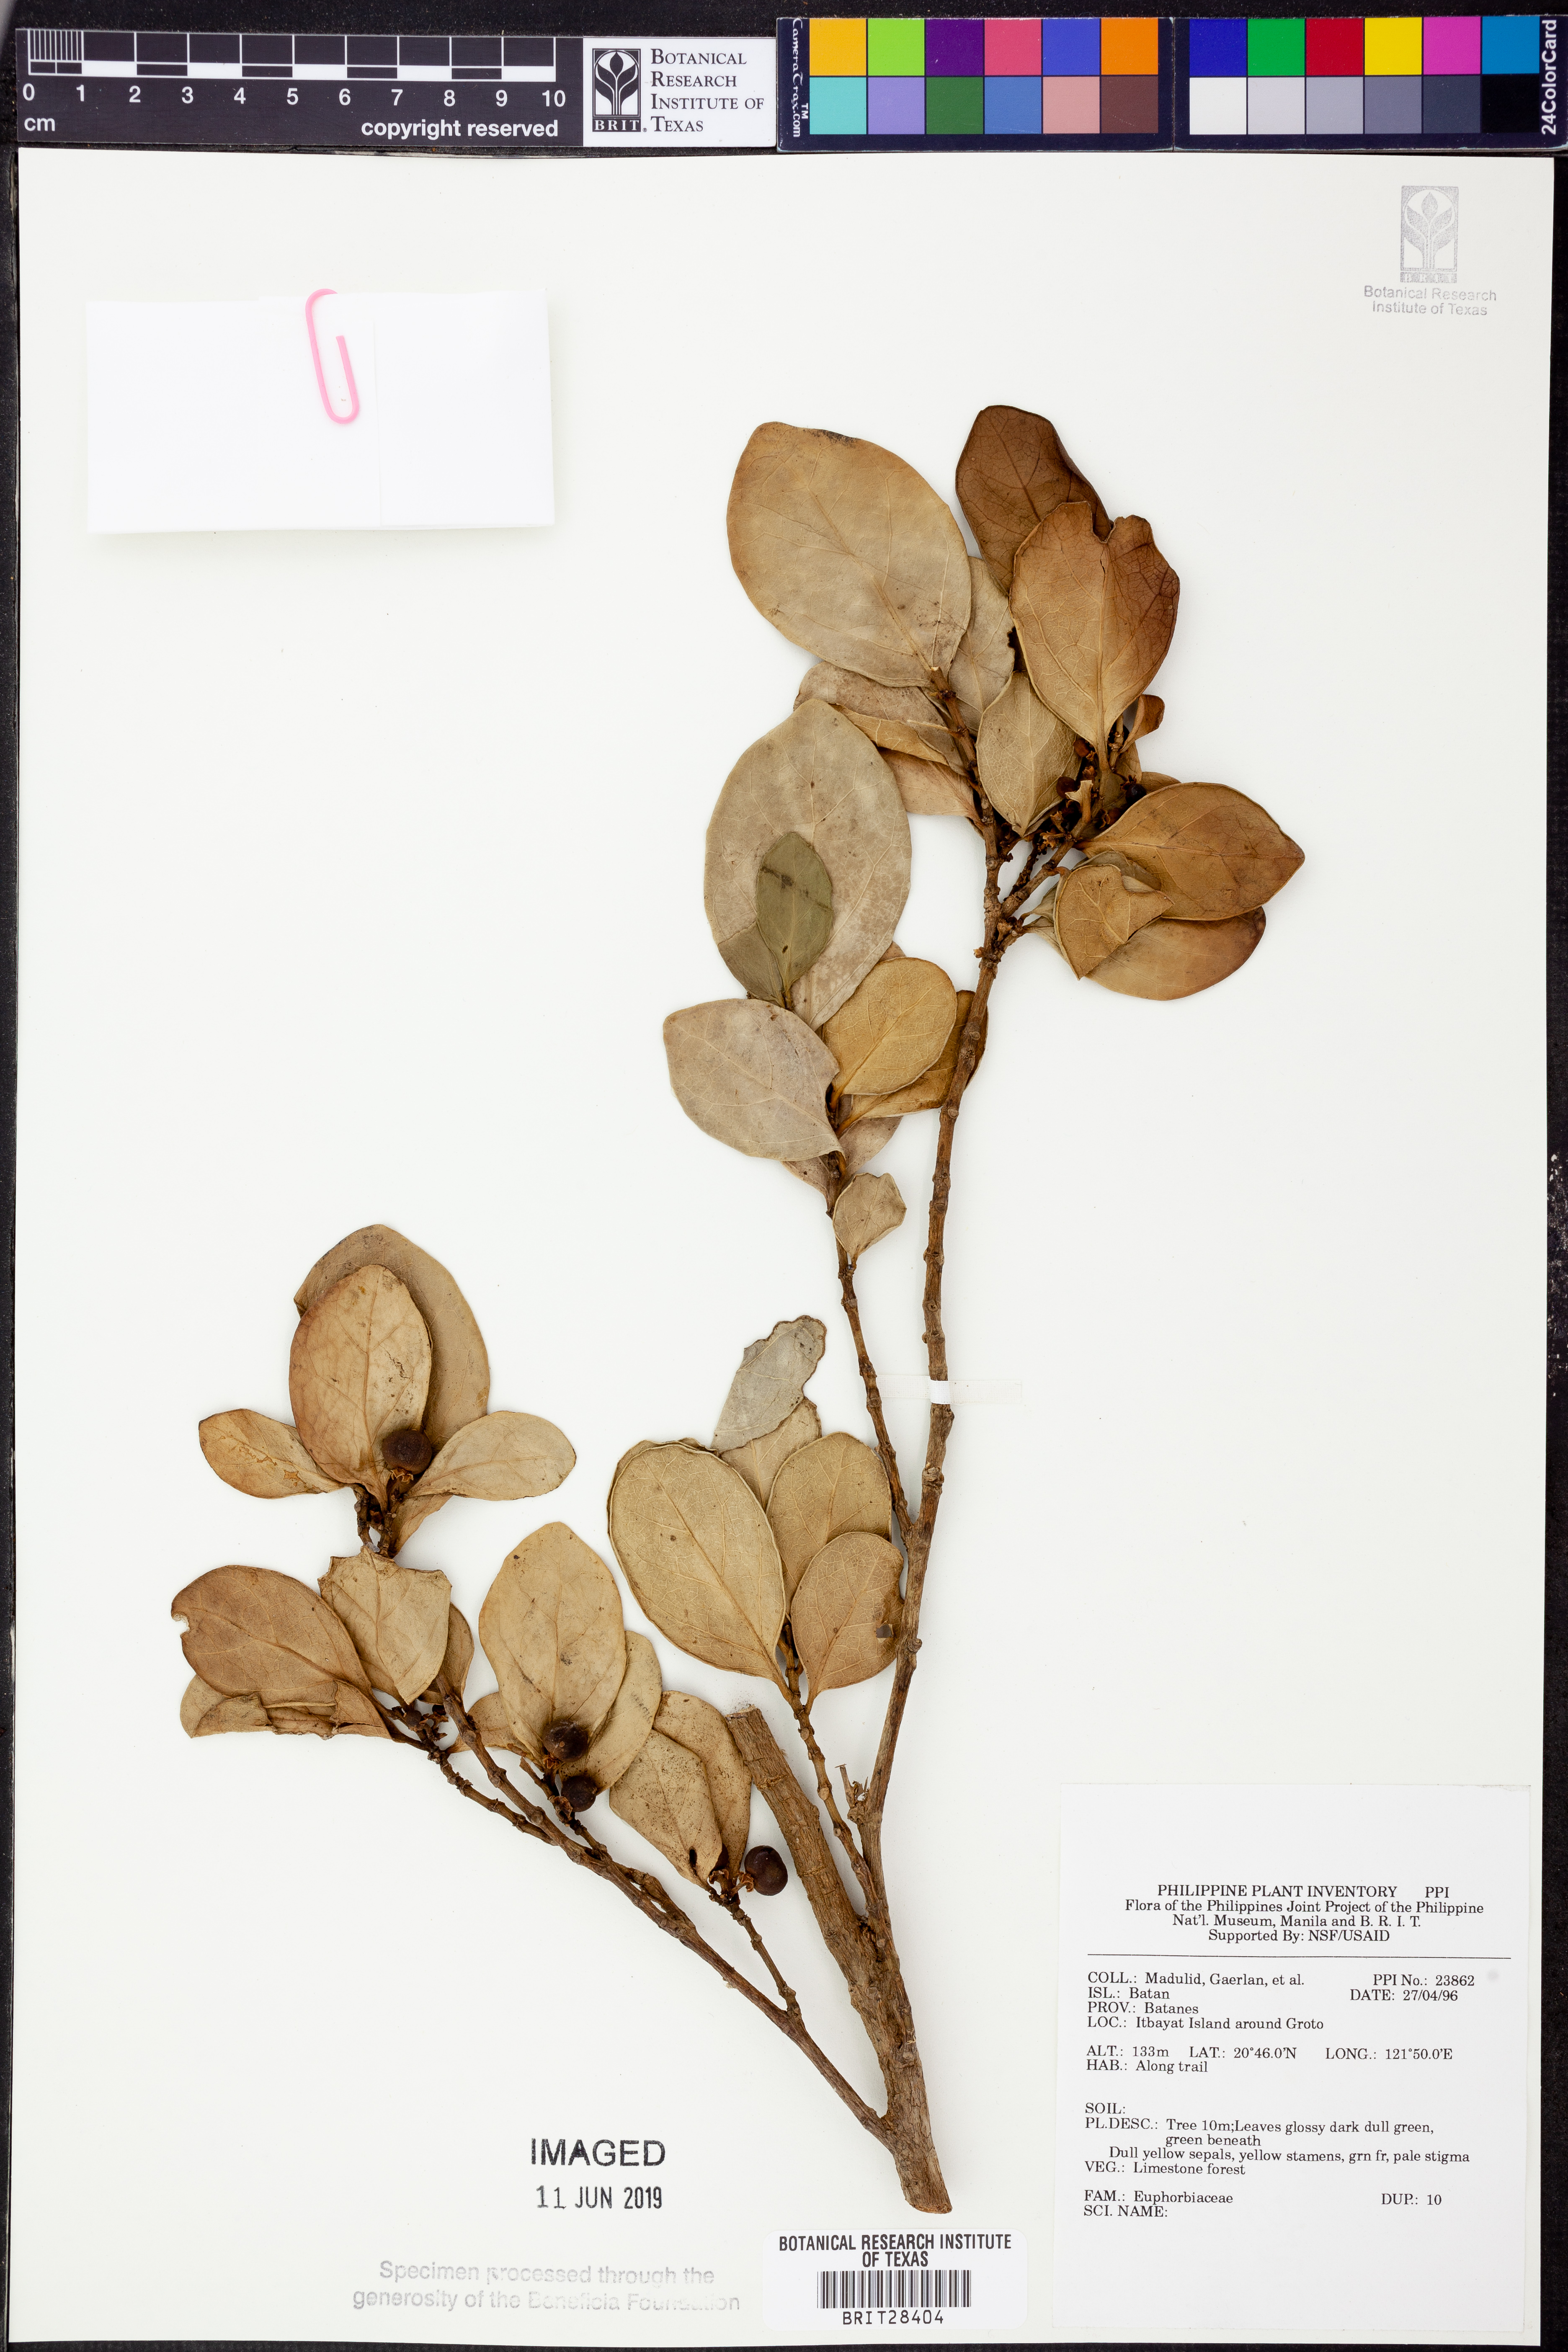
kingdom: Plantae
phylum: Tracheophyta
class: Magnoliopsida
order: Malpighiales
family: Euphorbiaceae
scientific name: Euphorbiaceae
